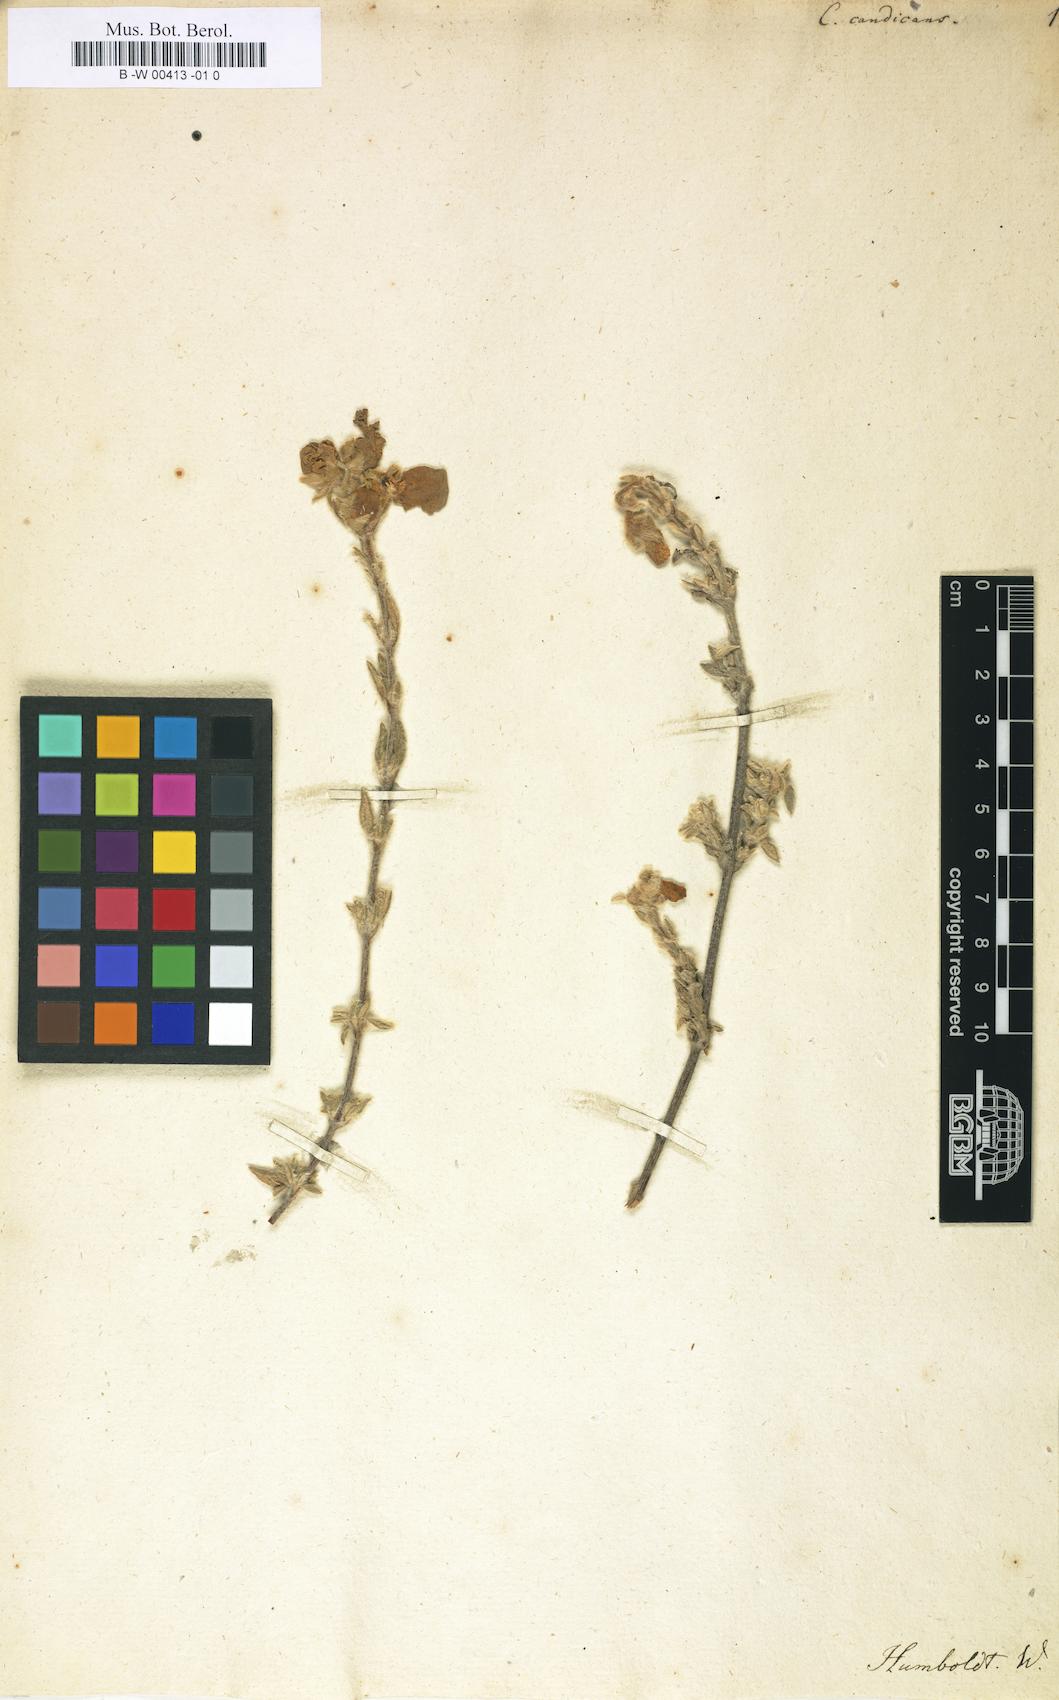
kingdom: Plantae
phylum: Tracheophyta
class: Magnoliopsida
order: Lamiales
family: Calceolariaceae
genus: Calceolaria
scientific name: Calceolaria argentea
